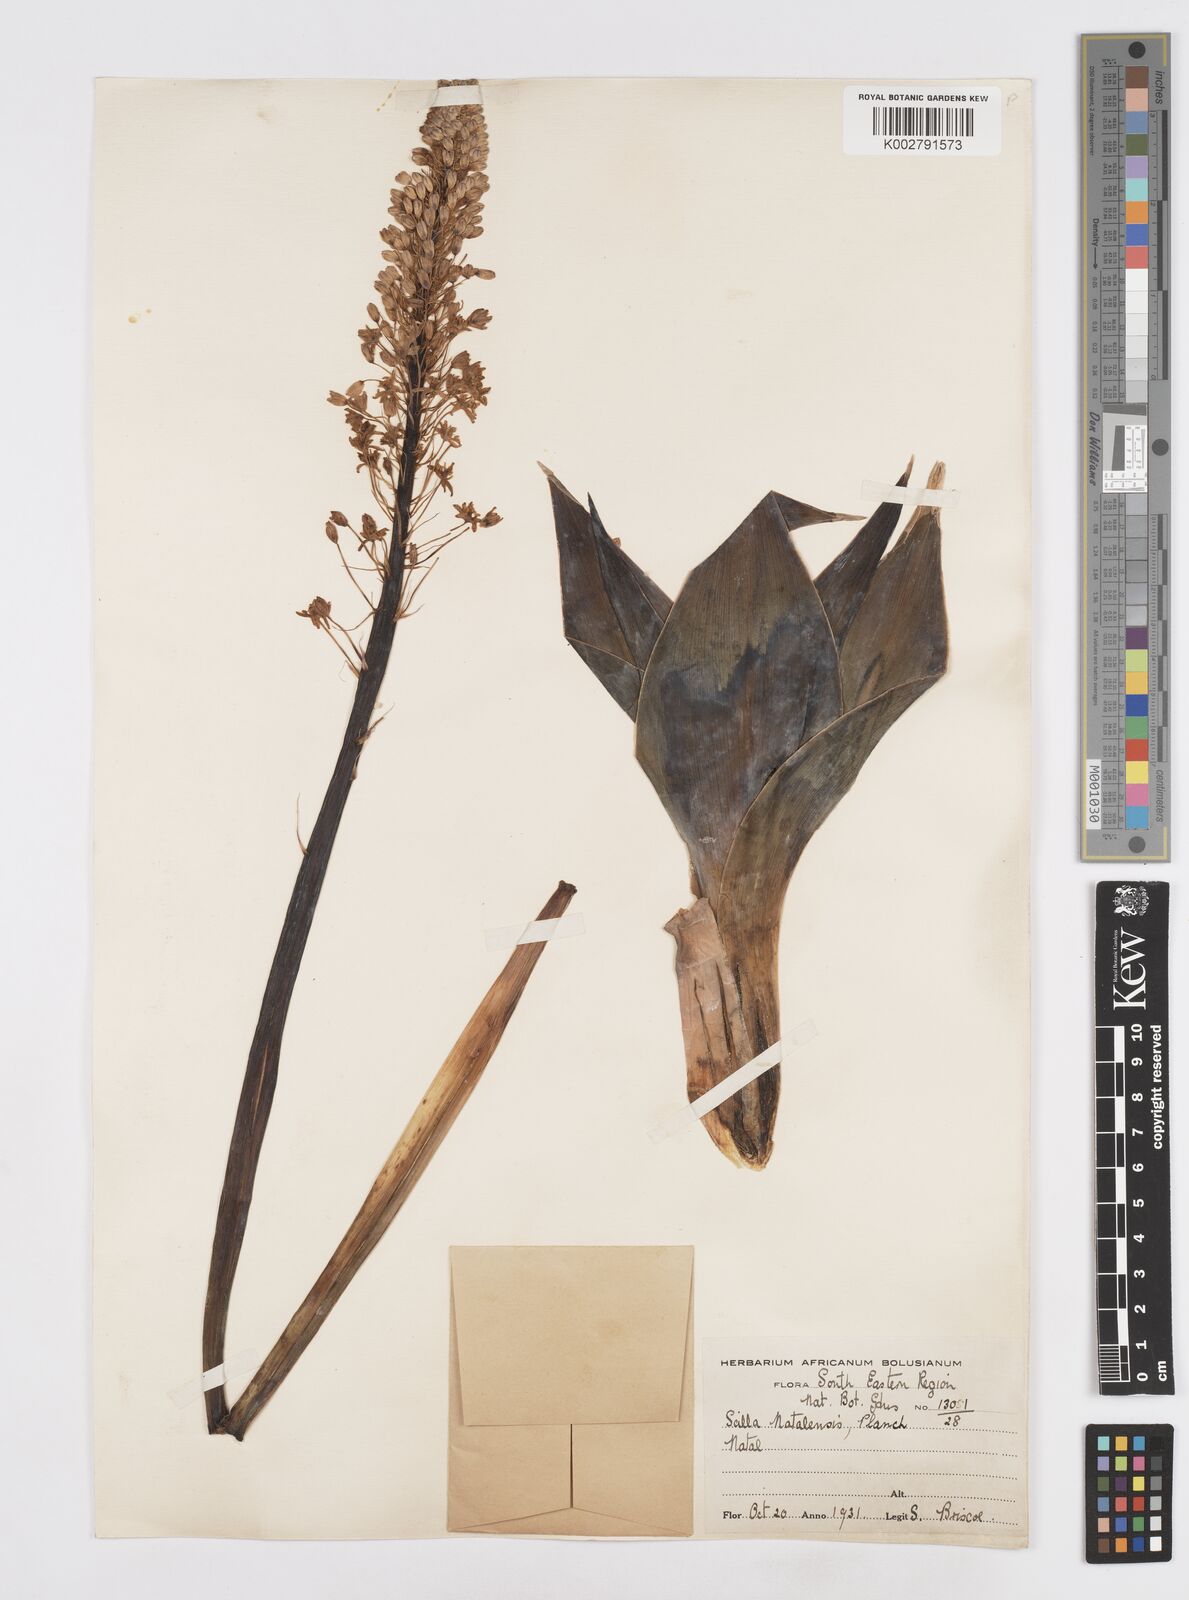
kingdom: Plantae
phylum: Tracheophyta
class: Liliopsida
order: Asparagales
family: Asparagaceae
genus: Merwilla
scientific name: Merwilla plumbea
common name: Blue-squill
